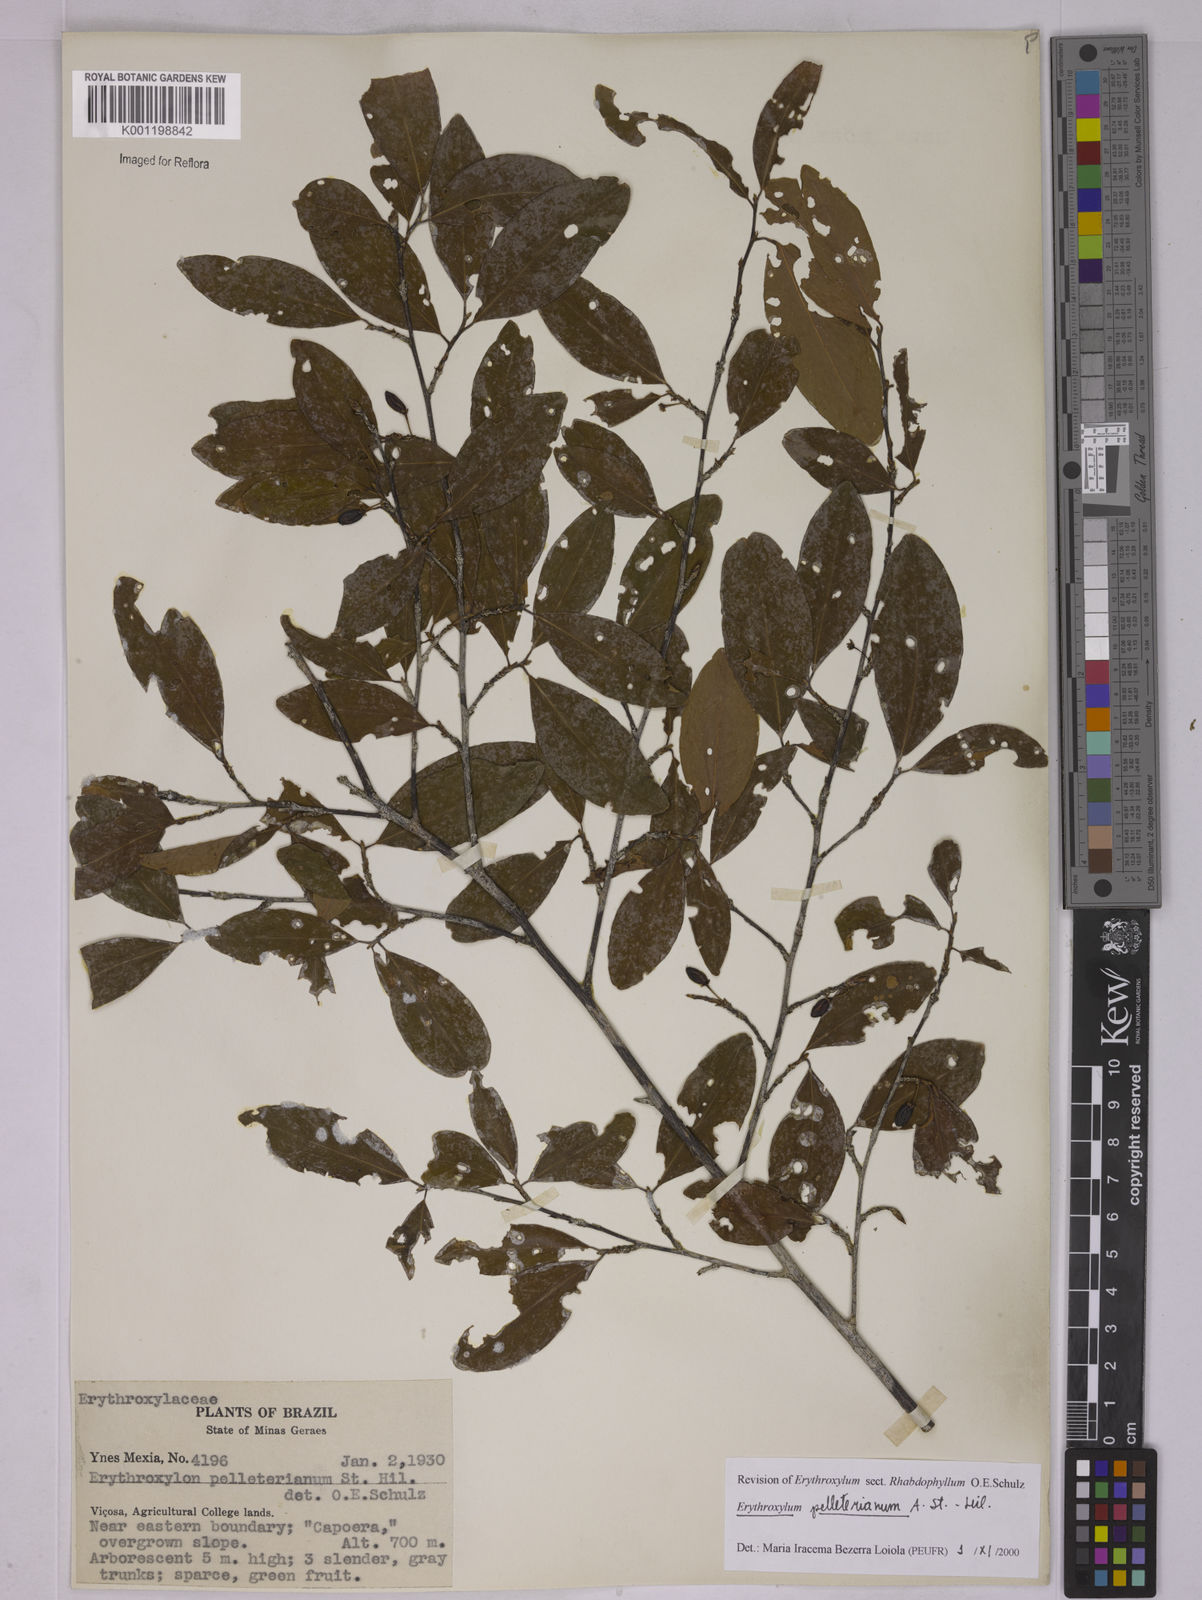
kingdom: Plantae
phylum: Tracheophyta
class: Magnoliopsida
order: Malpighiales
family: Erythroxylaceae
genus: Erythroxylum
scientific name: Erythroxylum pelleterianum
